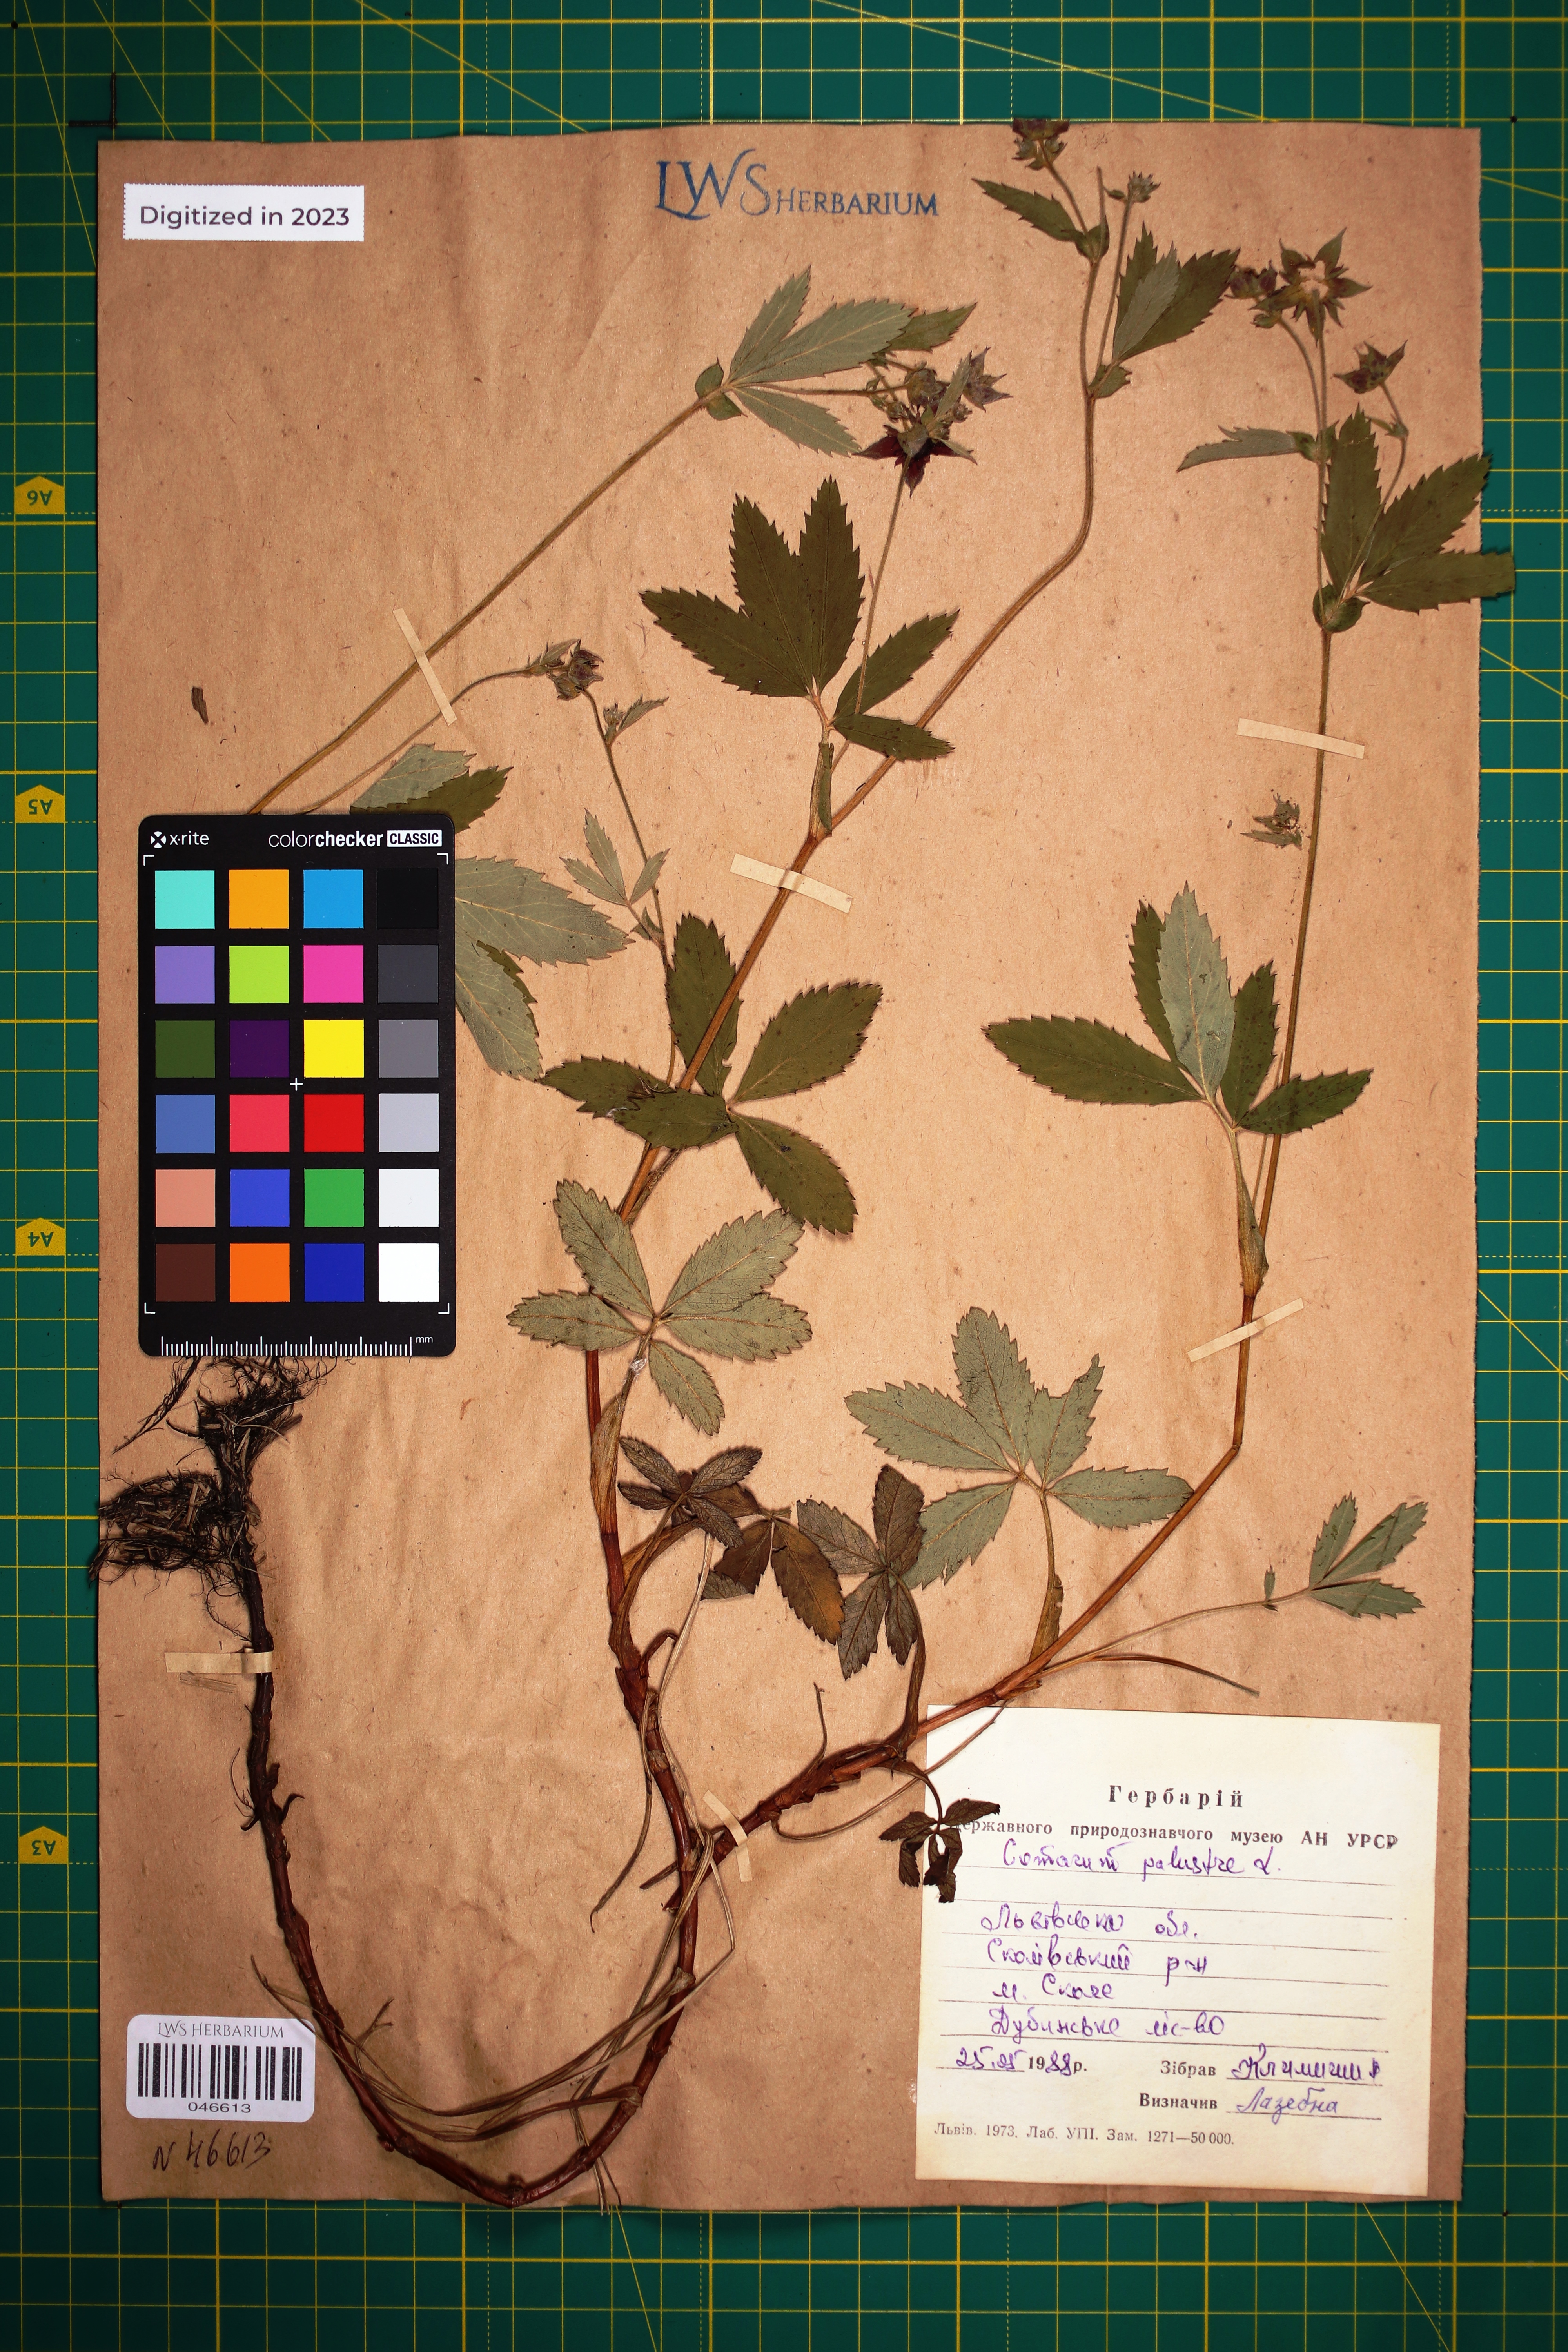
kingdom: Plantae
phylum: Tracheophyta
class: Magnoliopsida
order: Rosales
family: Rosaceae
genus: Comarum
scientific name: Comarum palustre
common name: Marsh cinquefoil
